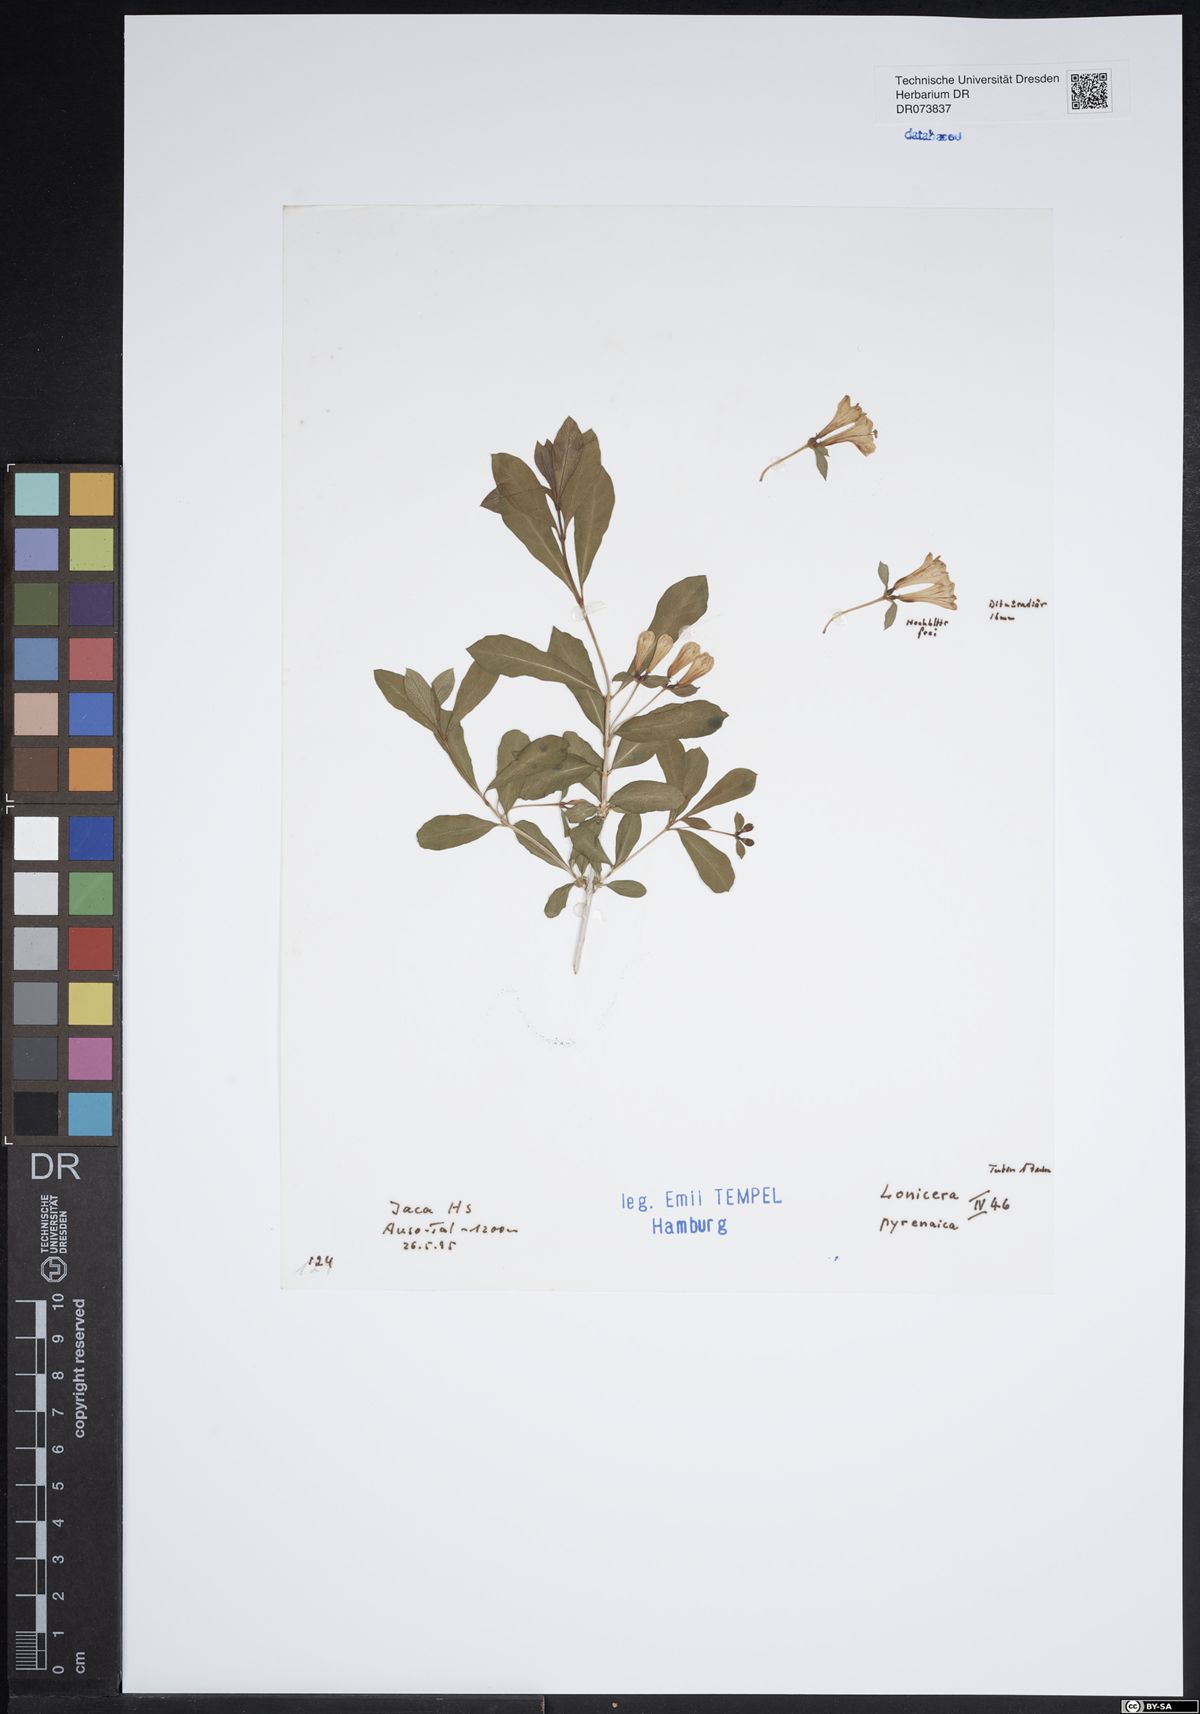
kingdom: Plantae
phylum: Tracheophyta
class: Magnoliopsida
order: Dipsacales
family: Caprifoliaceae
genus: Lonicera
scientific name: Lonicera pyrenaica
